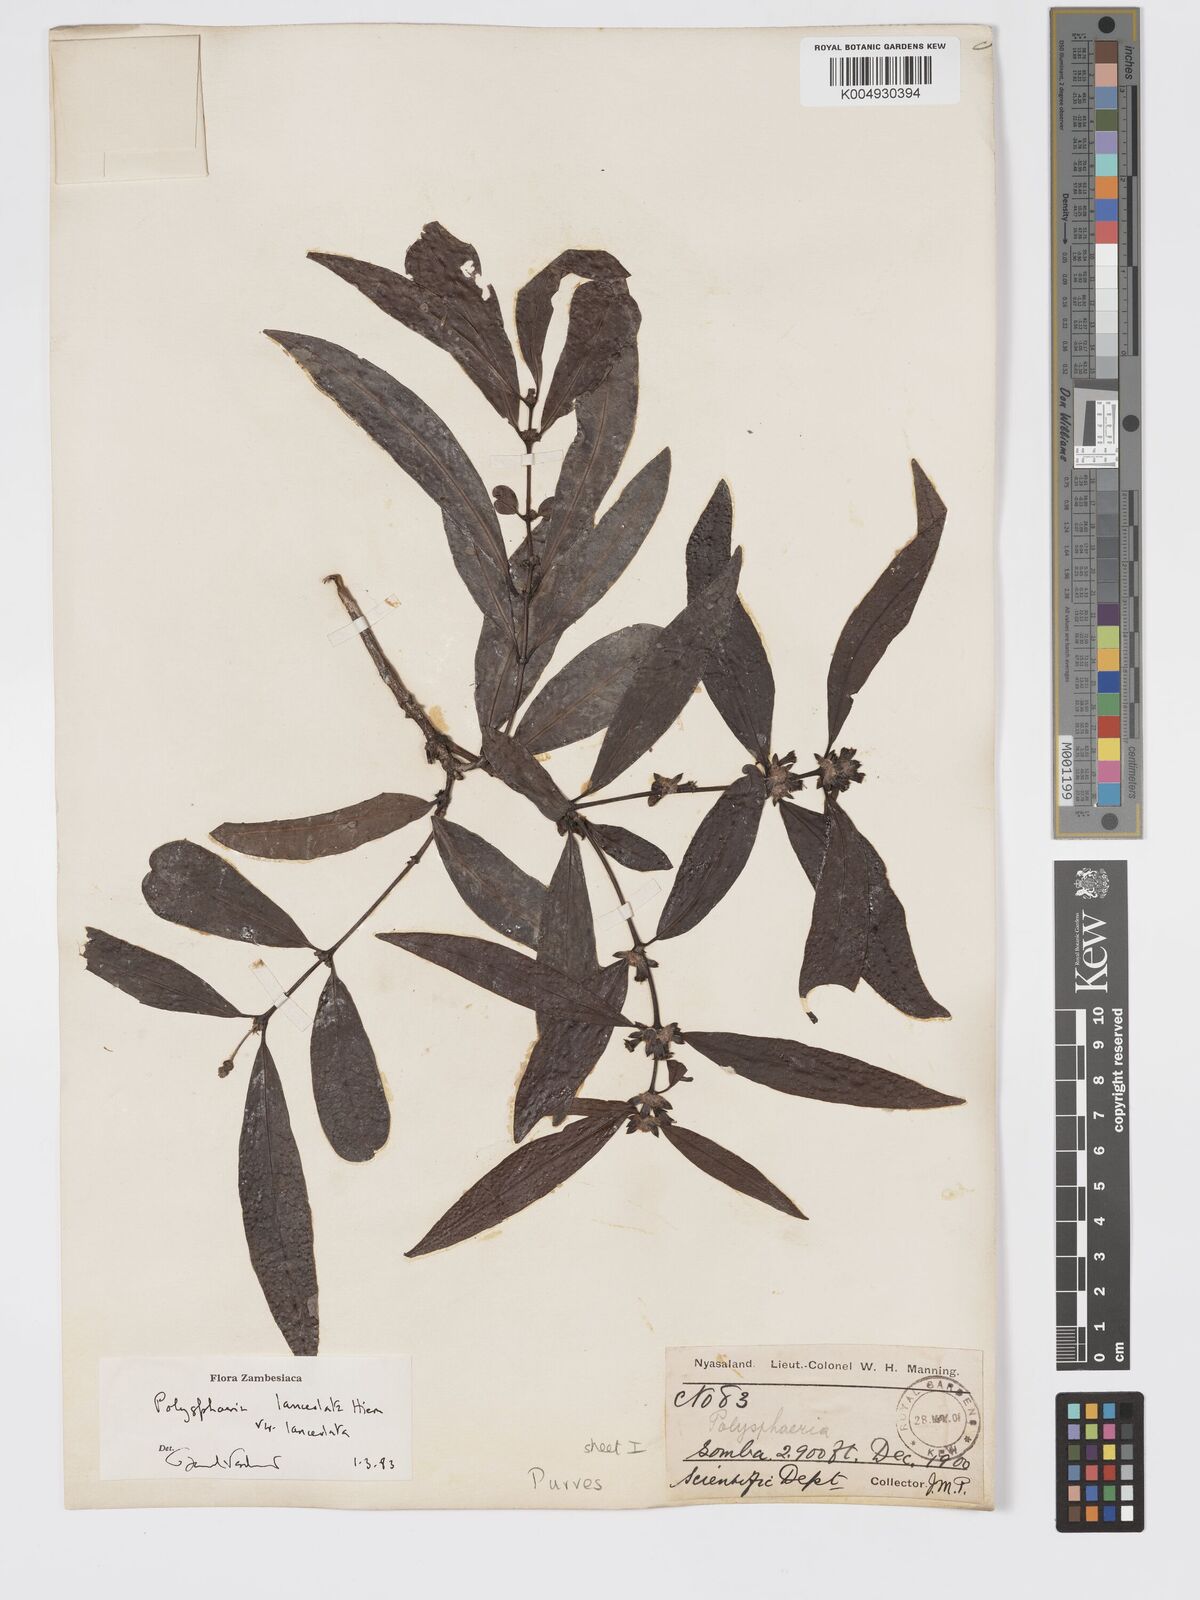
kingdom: Plantae
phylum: Tracheophyta
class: Magnoliopsida
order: Gentianales
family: Rubiaceae
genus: Polysphaeria
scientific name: Polysphaeria lanceolata
